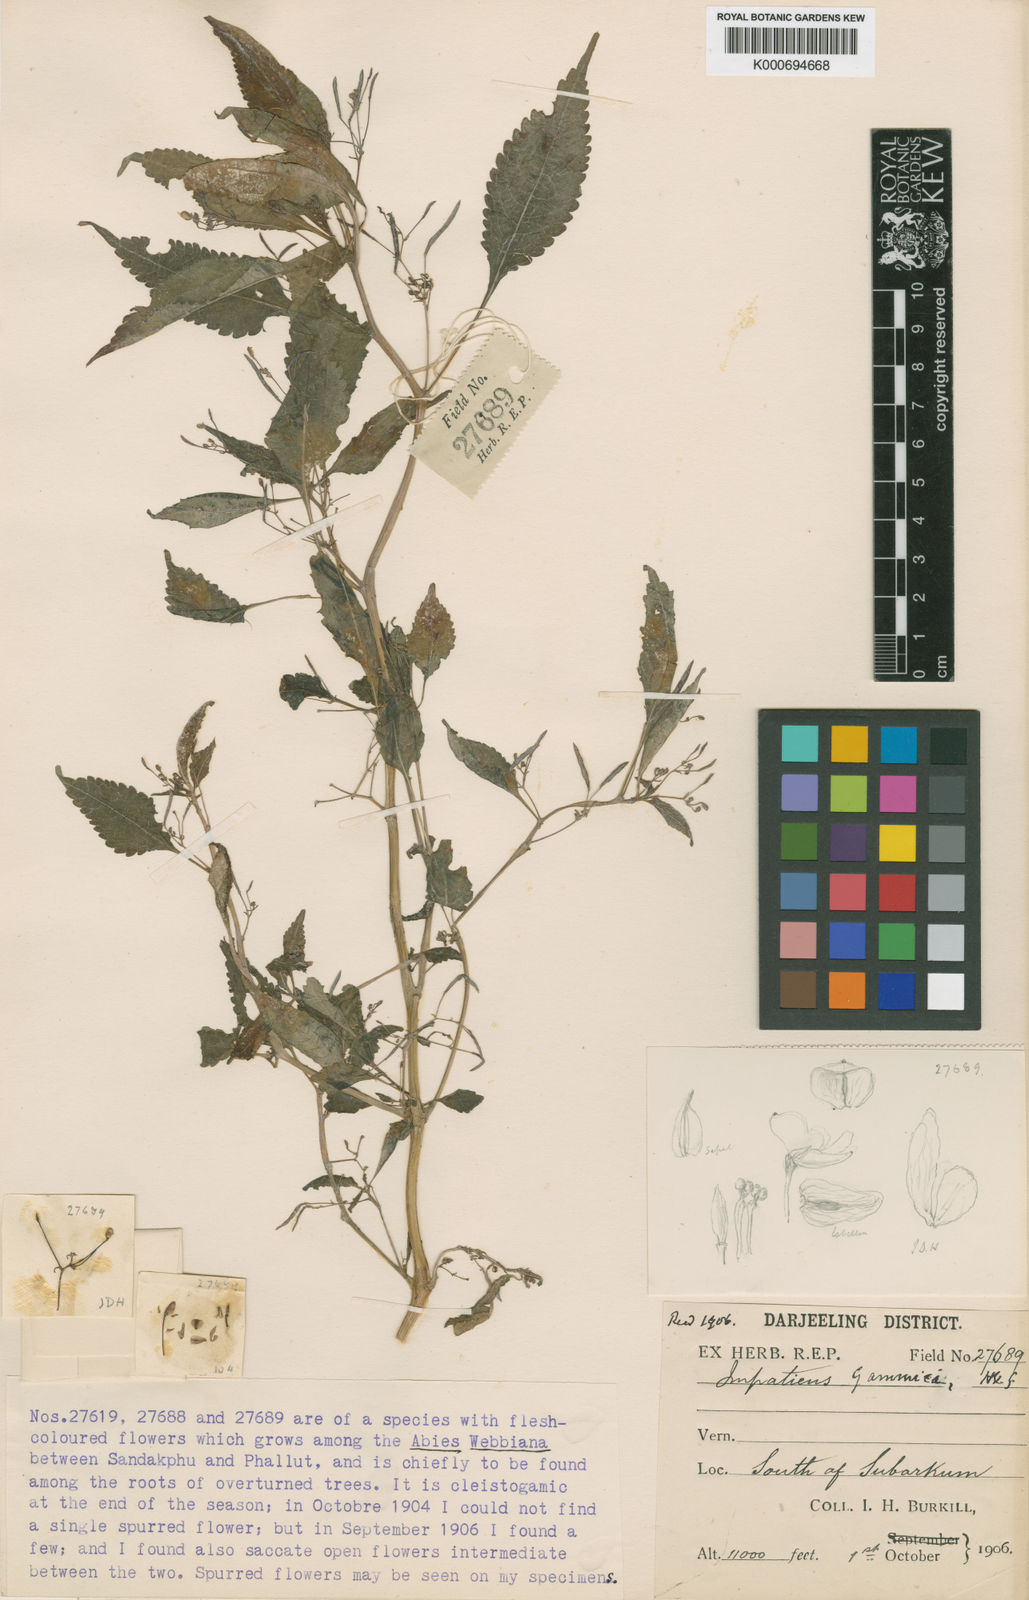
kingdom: Plantae
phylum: Tracheophyta
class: Magnoliopsida
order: Ericales
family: Balsaminaceae
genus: Impatiens
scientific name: Impatiens gammiei
